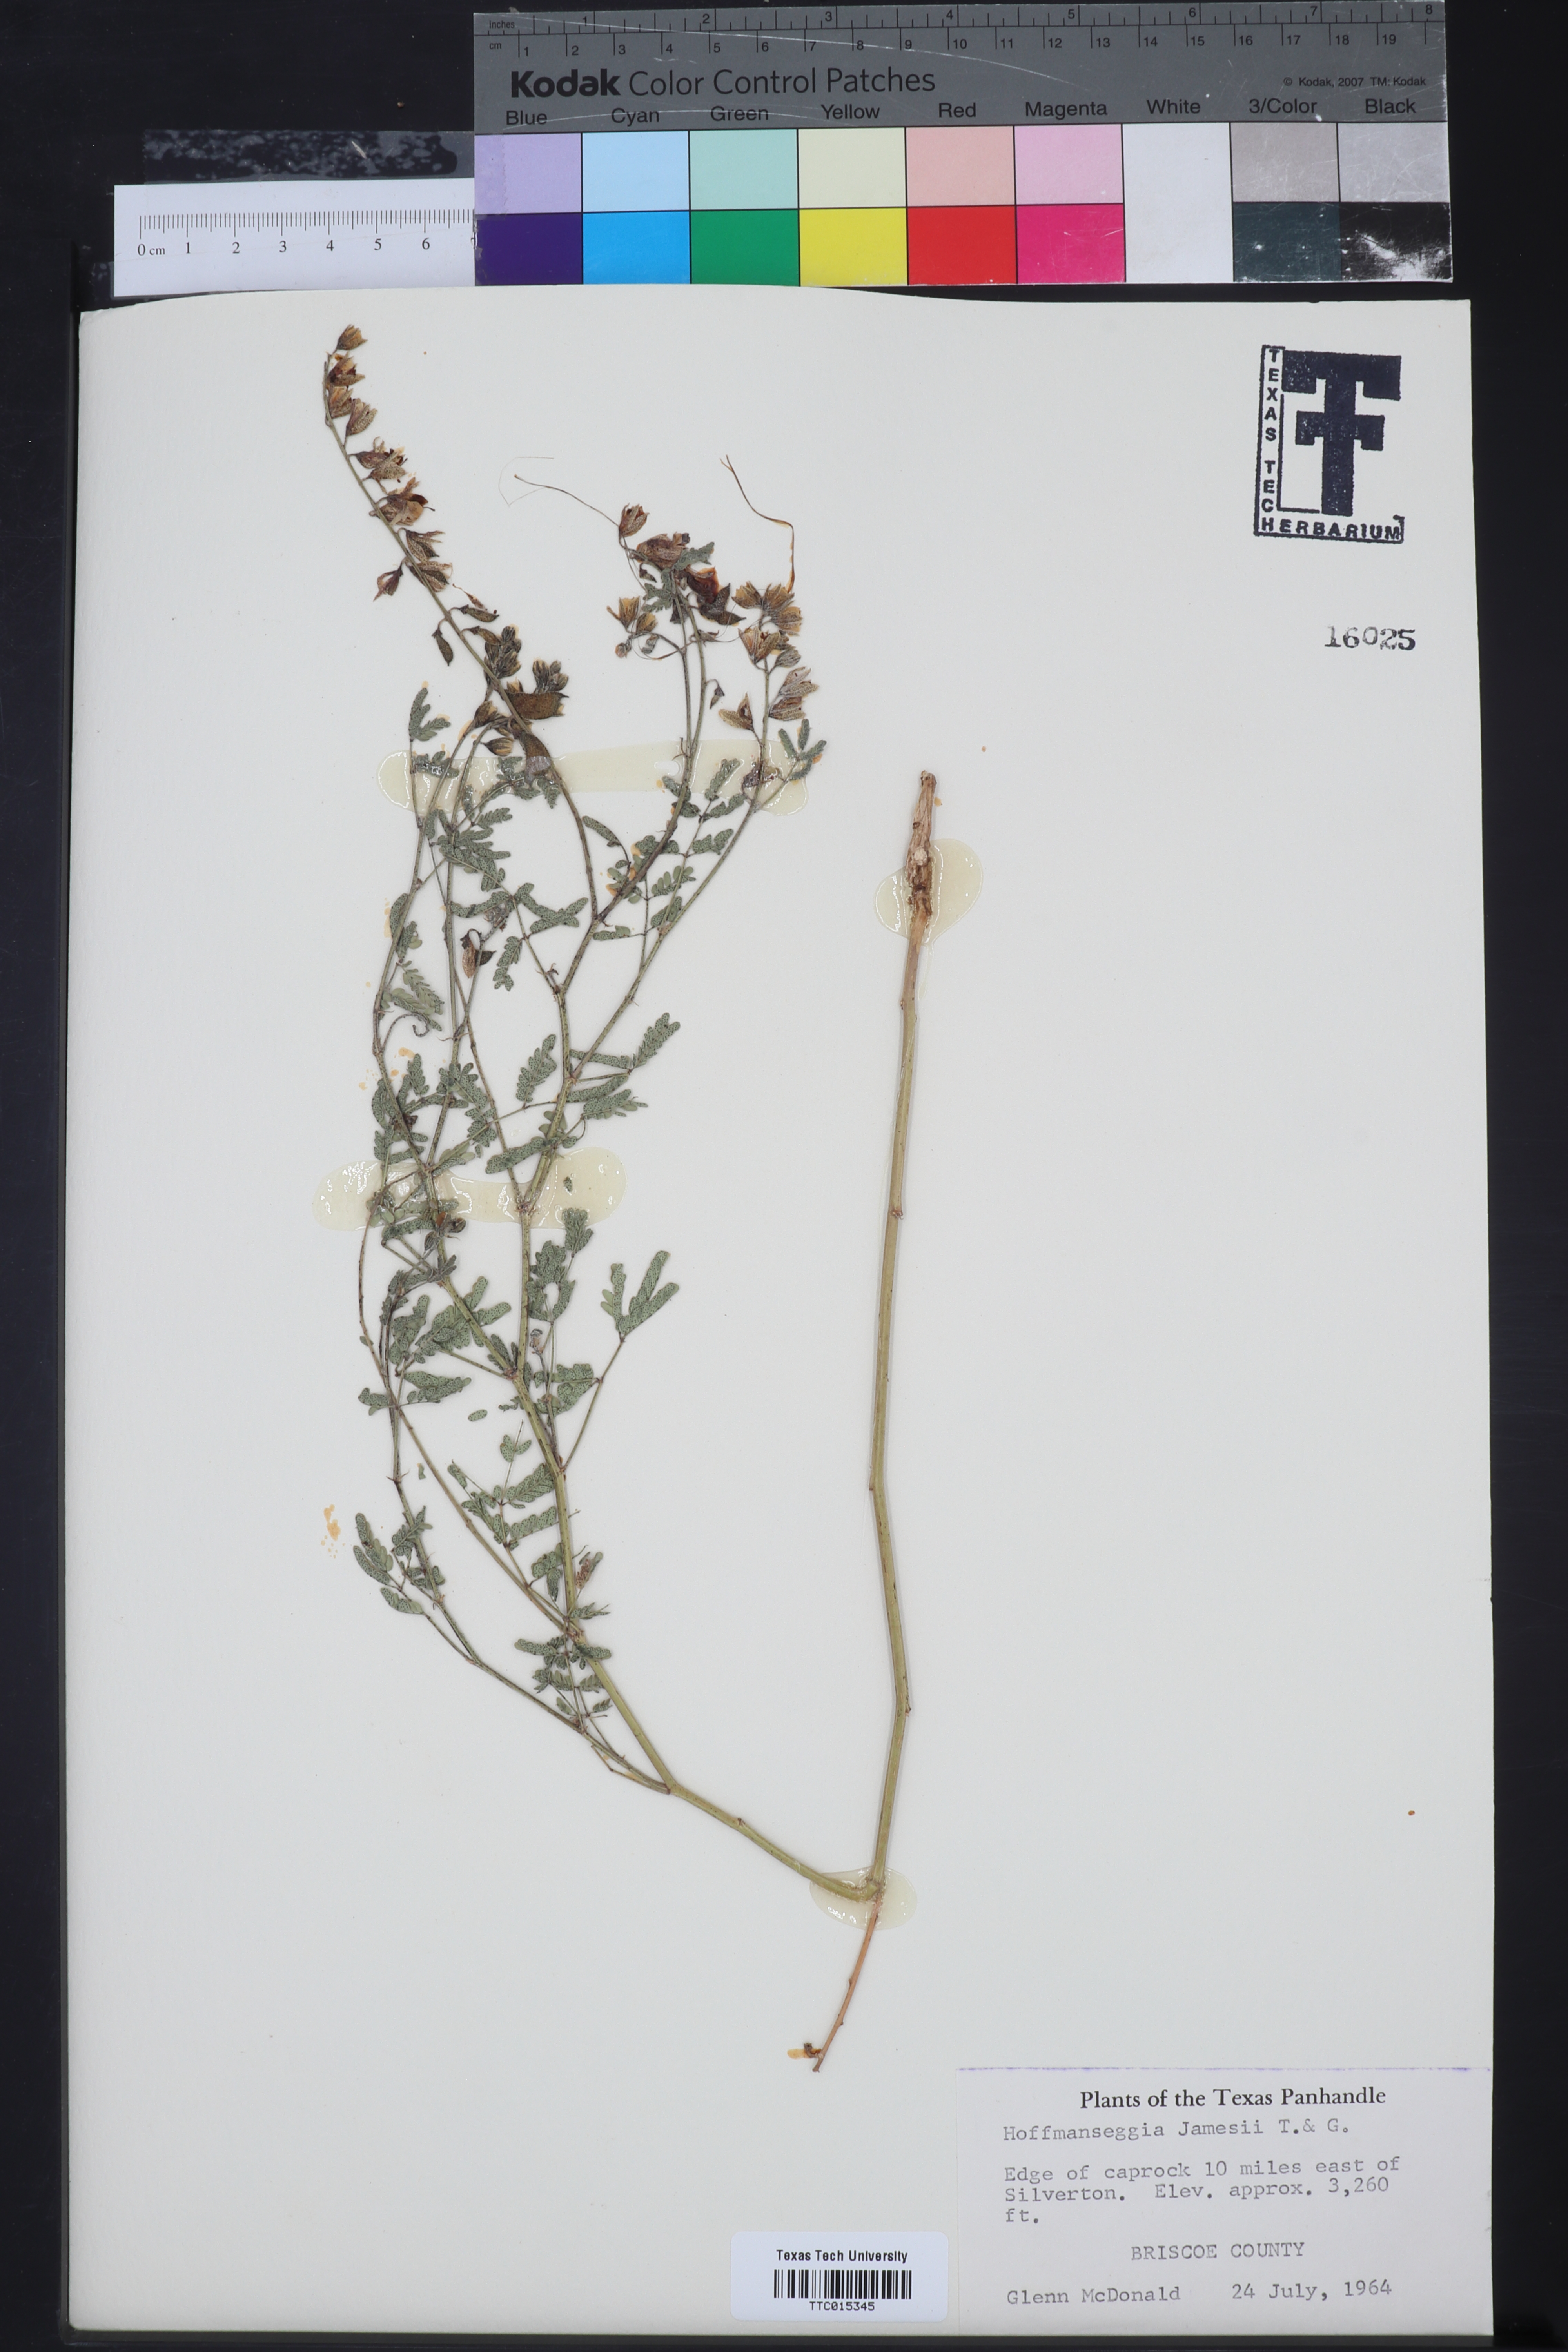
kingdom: Plantae
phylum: Tracheophyta
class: Magnoliopsida
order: Fabales
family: Fabaceae
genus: Pomaria
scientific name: Pomaria jamesii
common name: James' caesalpinia
